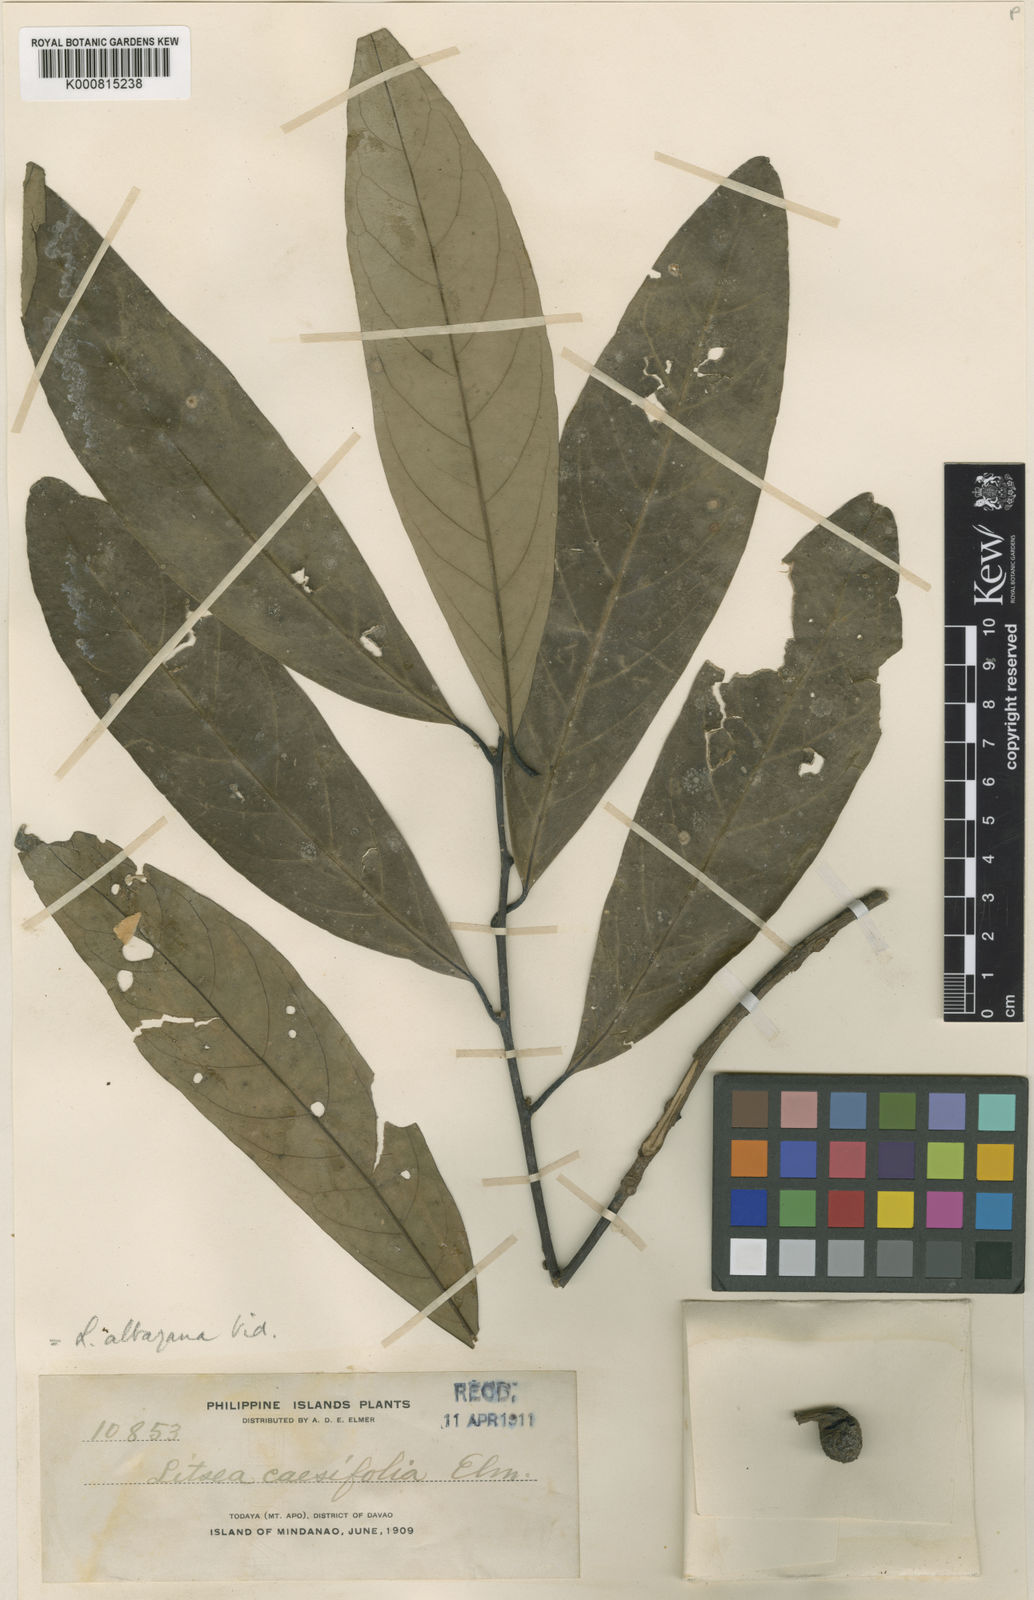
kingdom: Plantae
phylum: Tracheophyta
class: Magnoliopsida
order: Laurales
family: Lauraceae
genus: Litsea
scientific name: Litsea albayana
